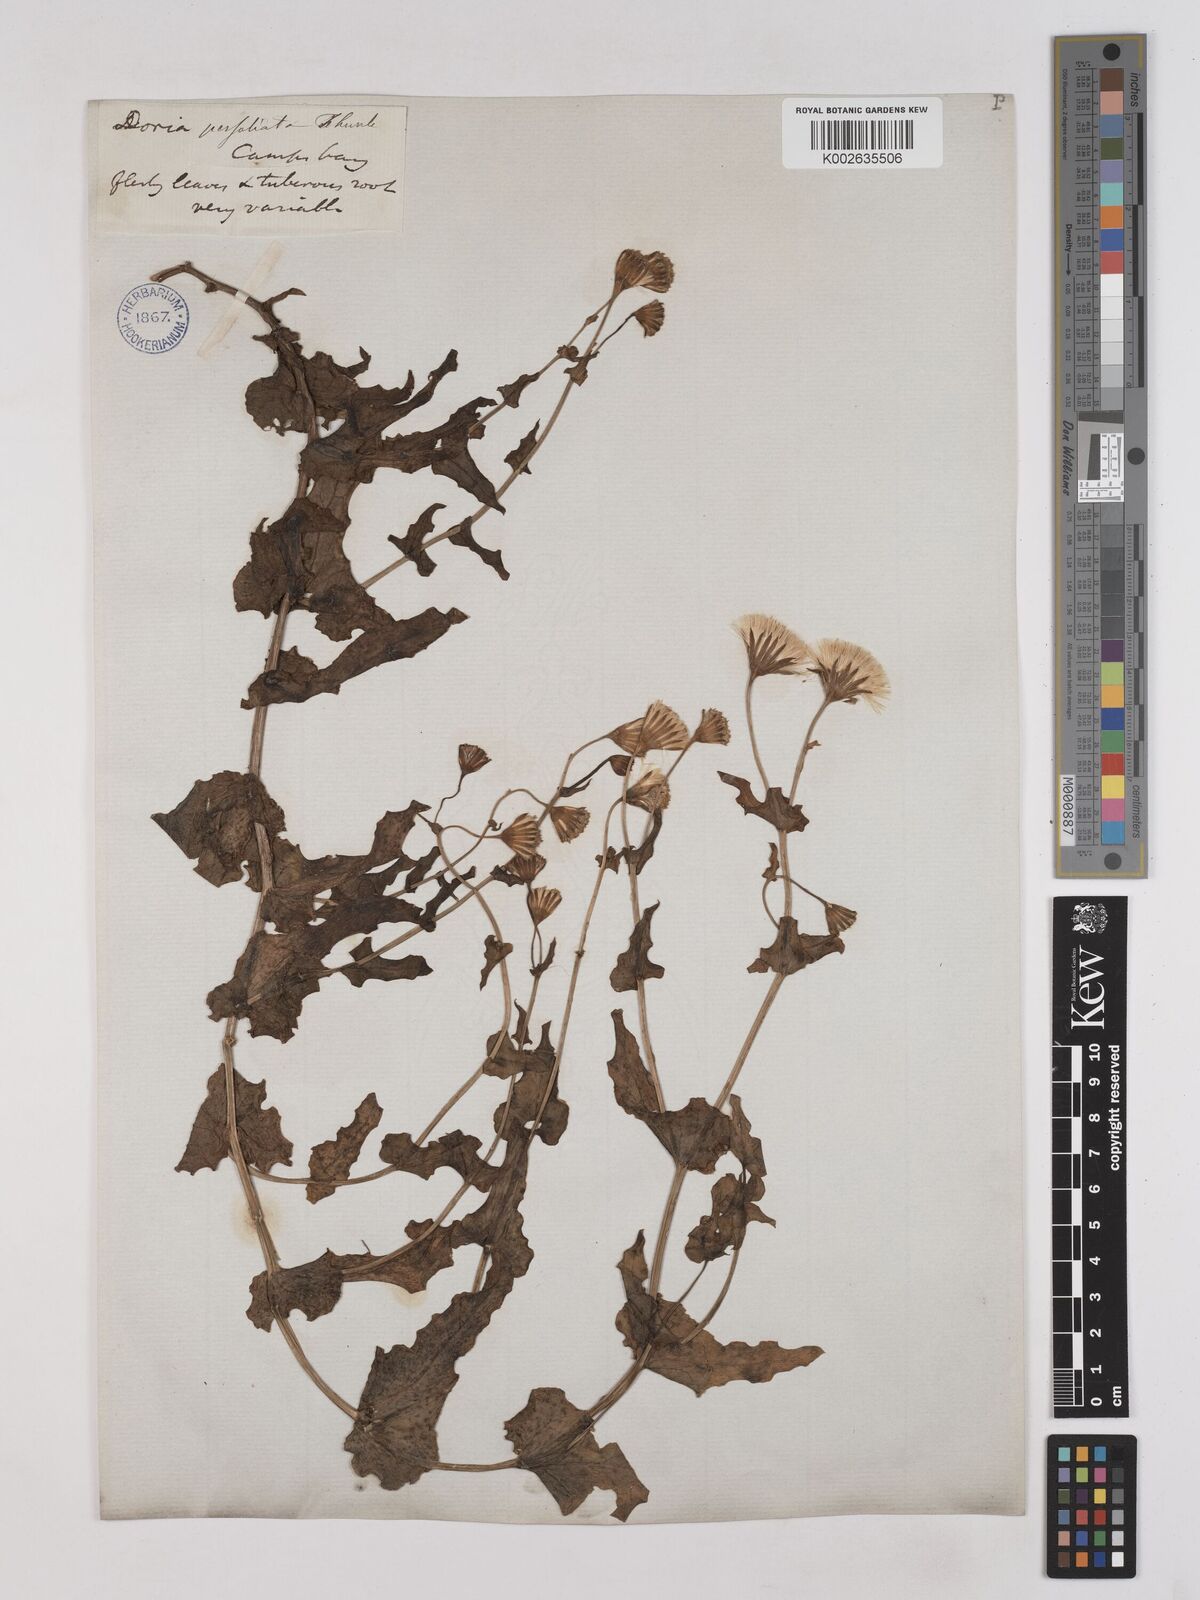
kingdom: Plantae
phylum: Tracheophyta
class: Magnoliopsida
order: Asterales
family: Asteraceae
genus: Othonna
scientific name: Othonna perfoliata
